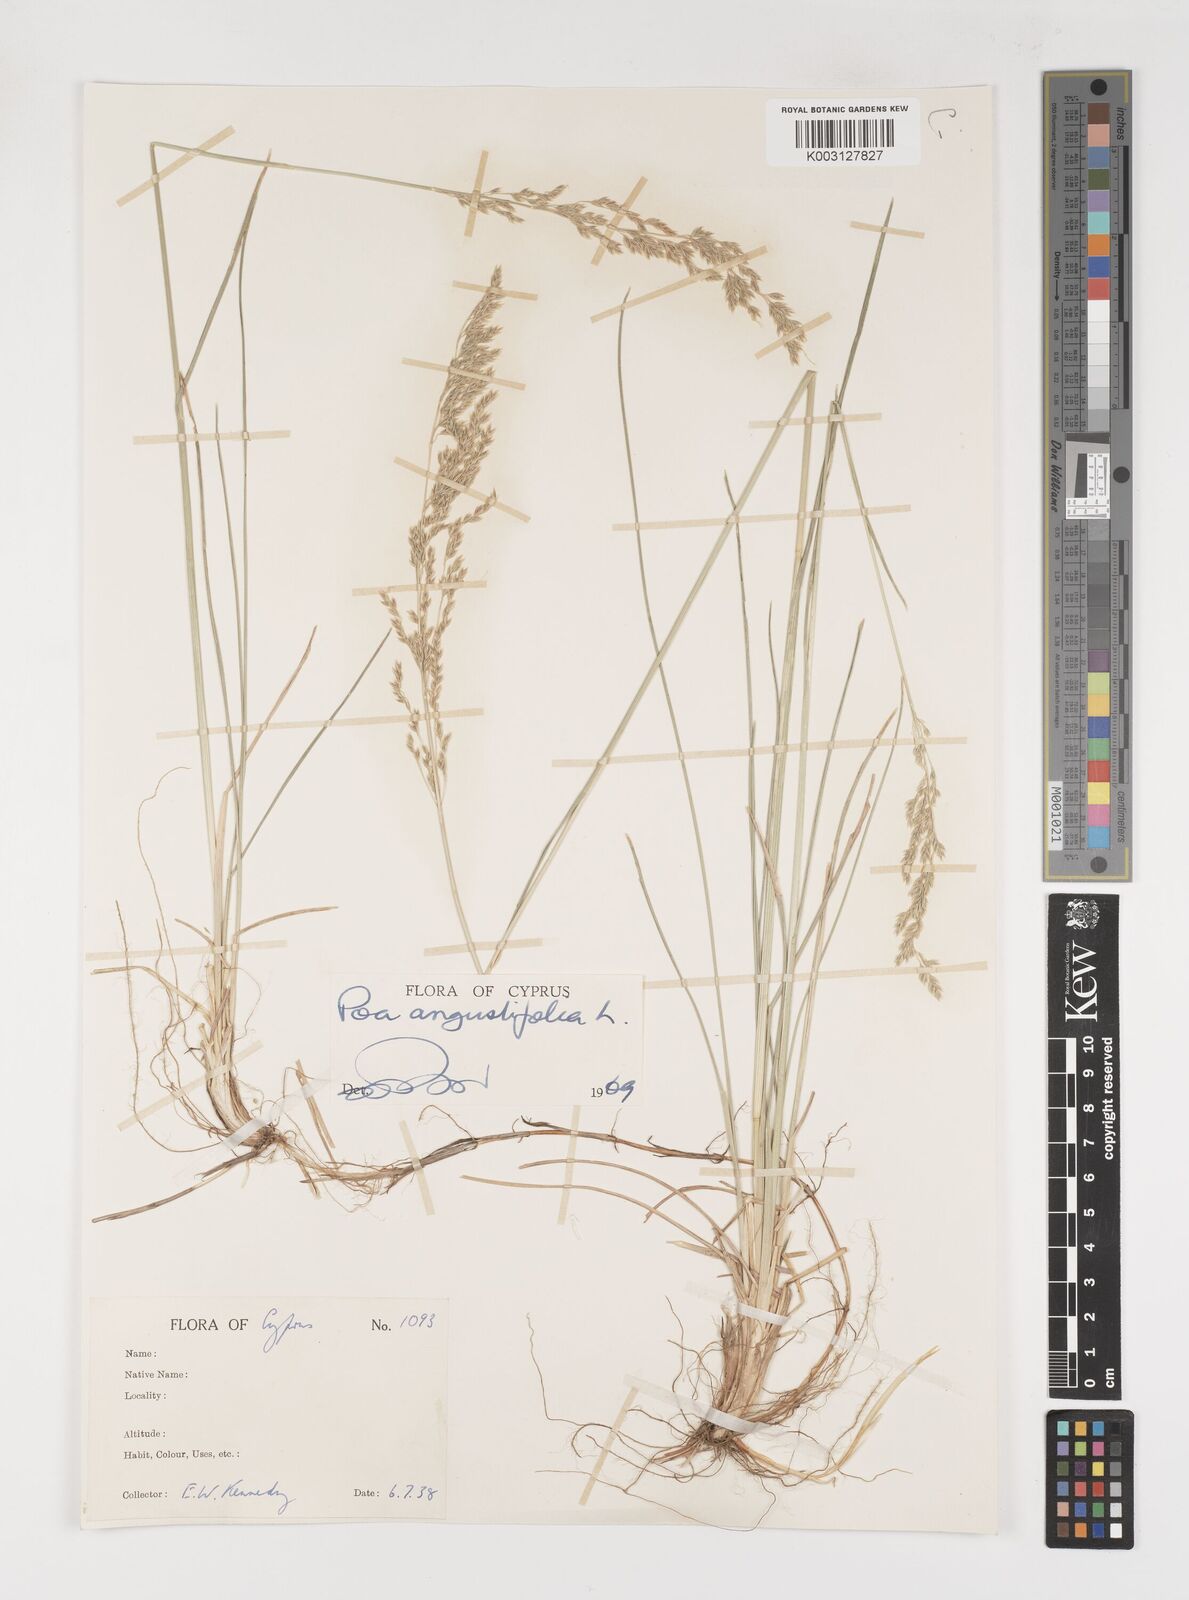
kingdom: Plantae
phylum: Tracheophyta
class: Liliopsida
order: Poales
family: Poaceae
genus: Poa
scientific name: Poa angustifolia
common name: Narrow-leaved meadow-grass
